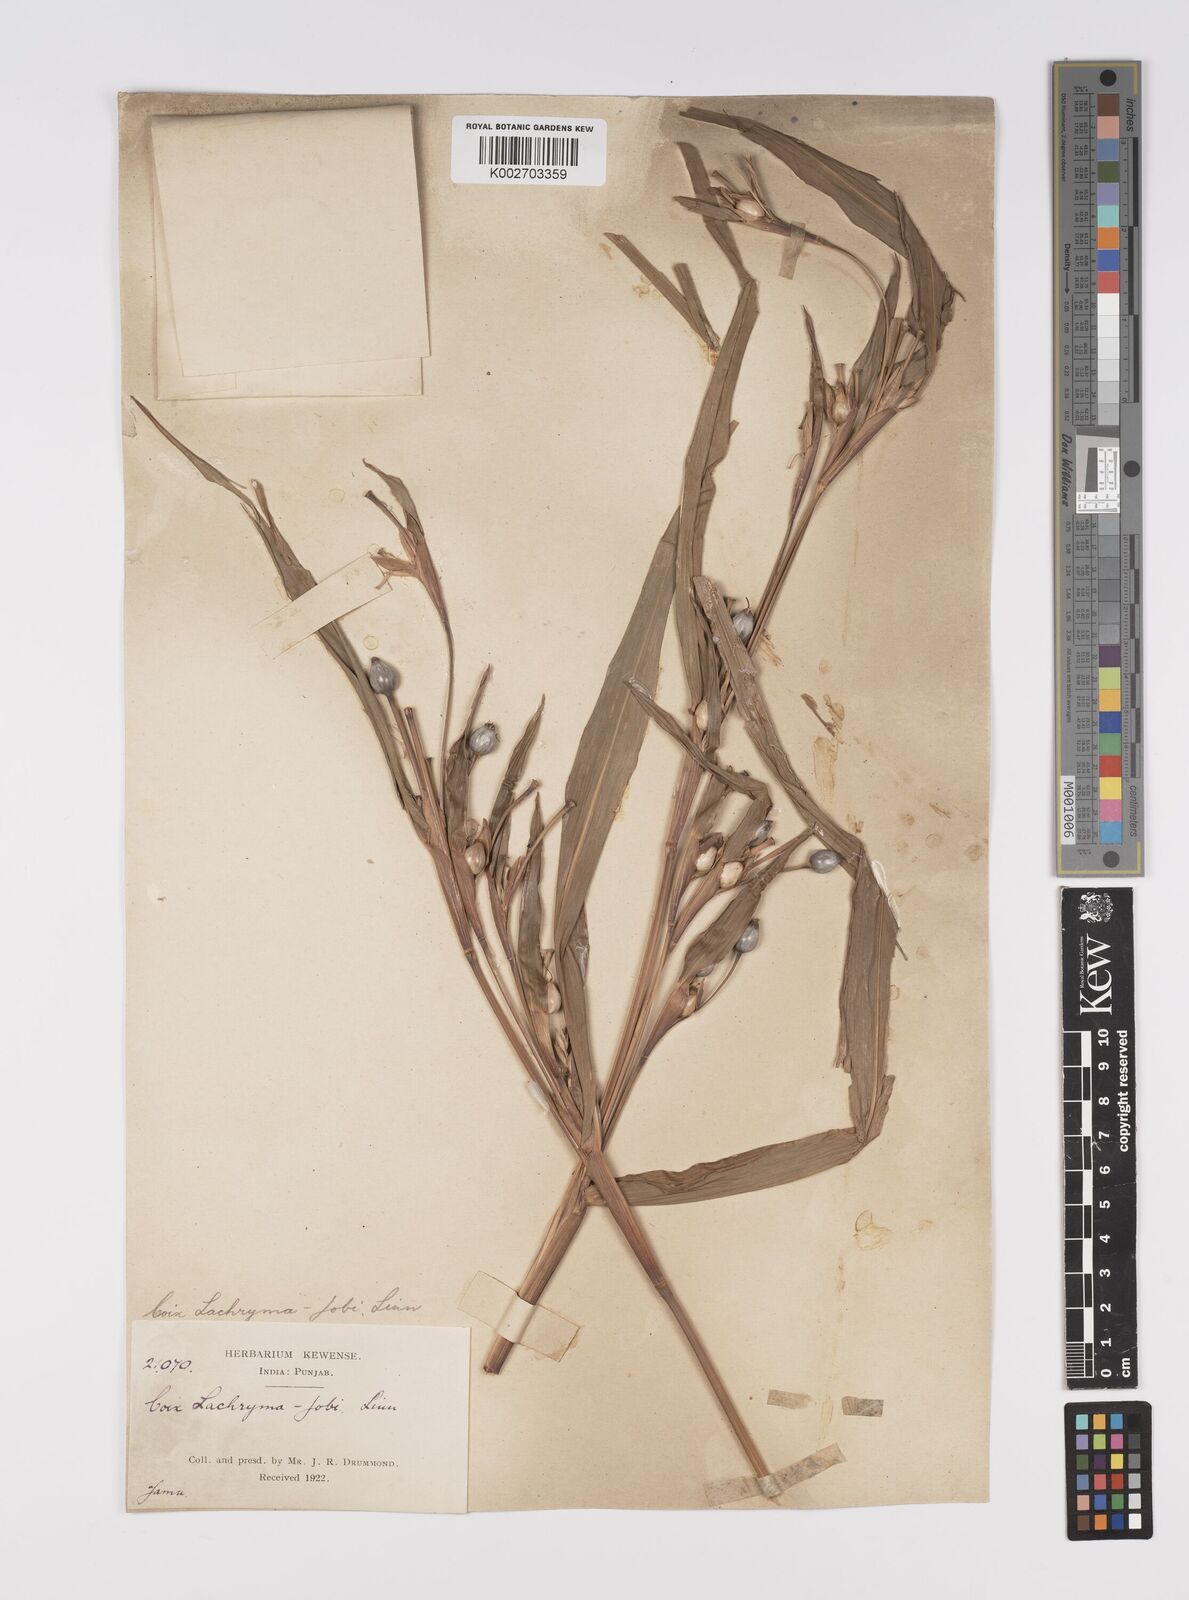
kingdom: Plantae
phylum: Tracheophyta
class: Liliopsida
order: Poales
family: Poaceae
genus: Coix
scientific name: Coix lacryma-jobi
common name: Job's tears
